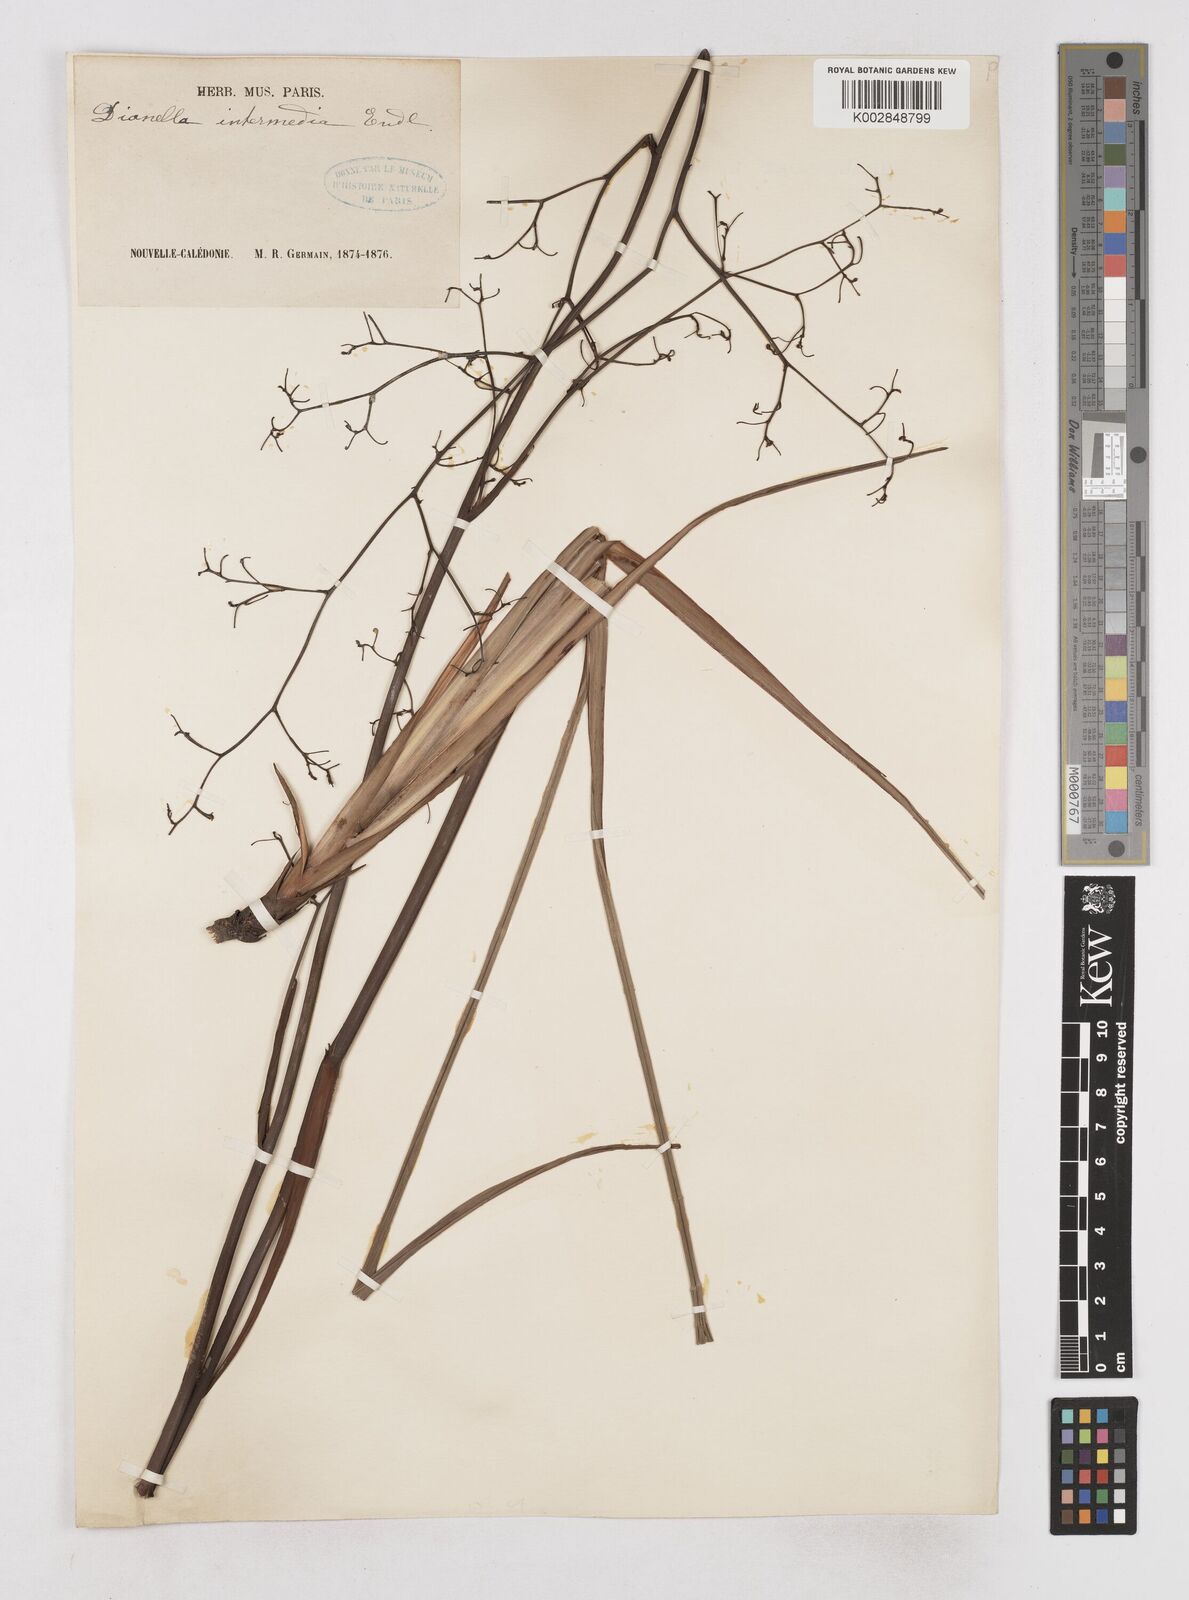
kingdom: Plantae
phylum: Tracheophyta
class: Liliopsida
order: Asparagales
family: Asphodelaceae
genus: Dianella
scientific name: Dianella adenanthera
